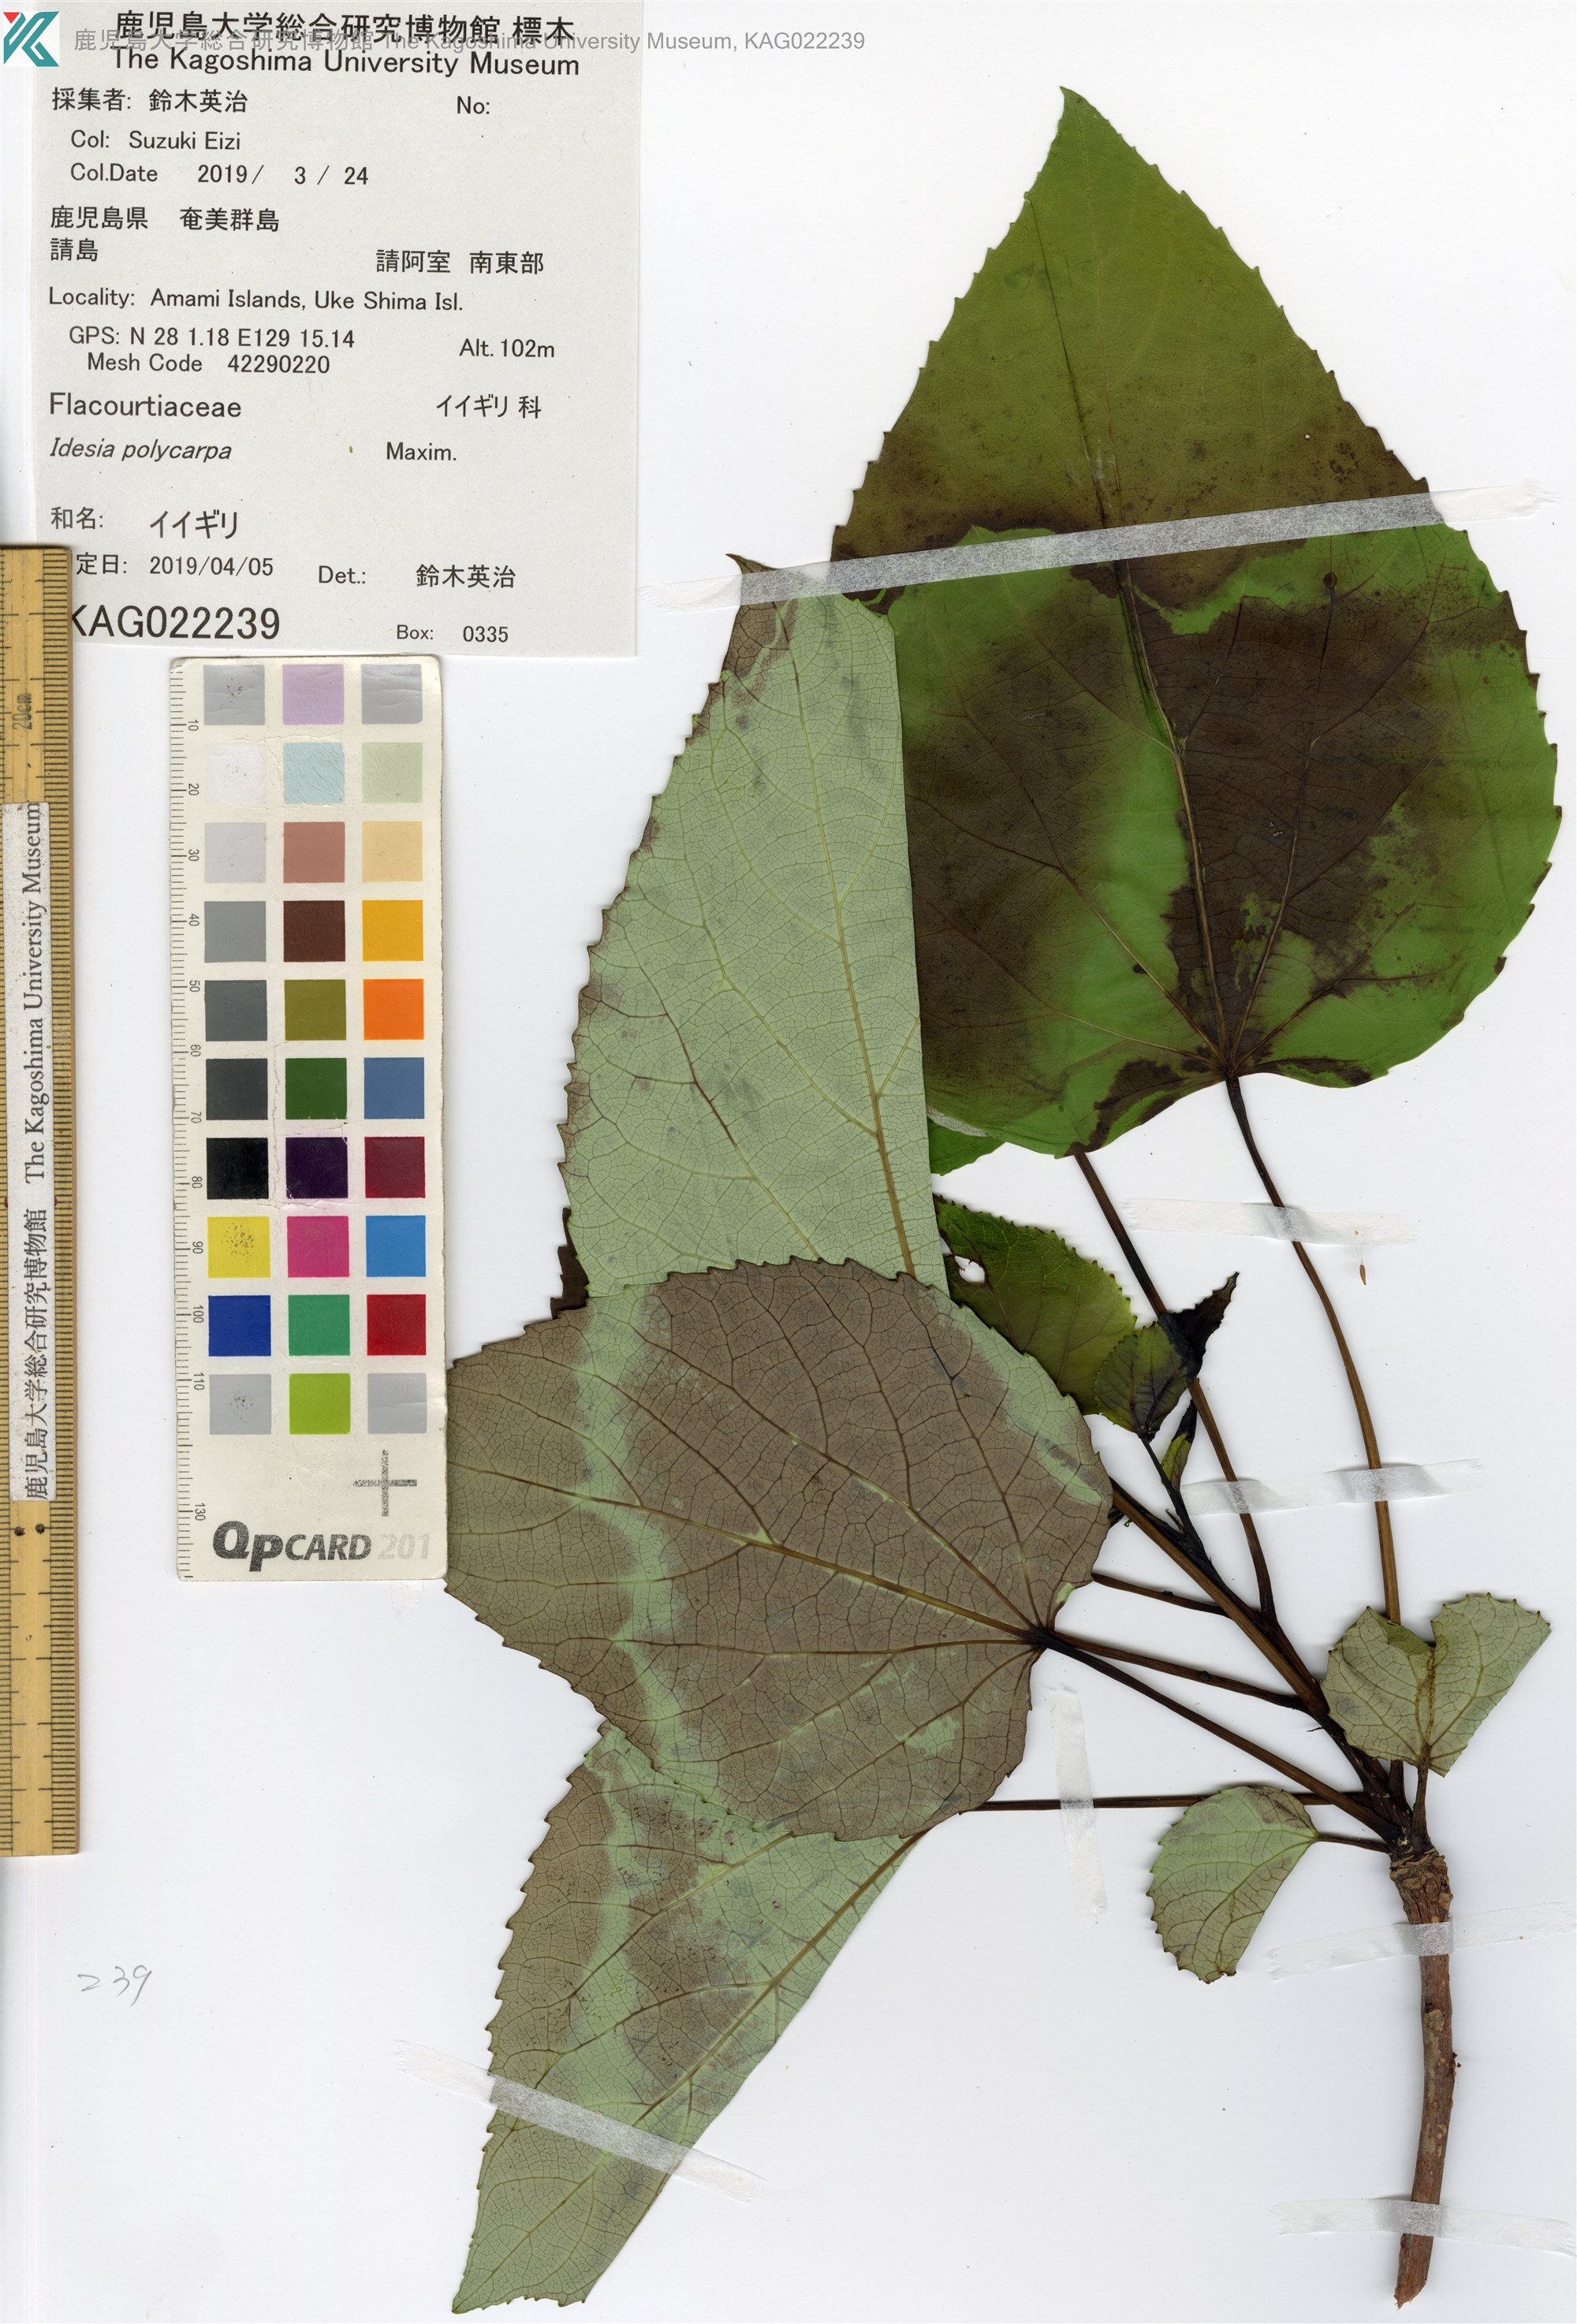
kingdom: Plantae
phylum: Tracheophyta
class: Magnoliopsida
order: Malpighiales
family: Salicaceae
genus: Idesia
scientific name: Idesia polycarpa
